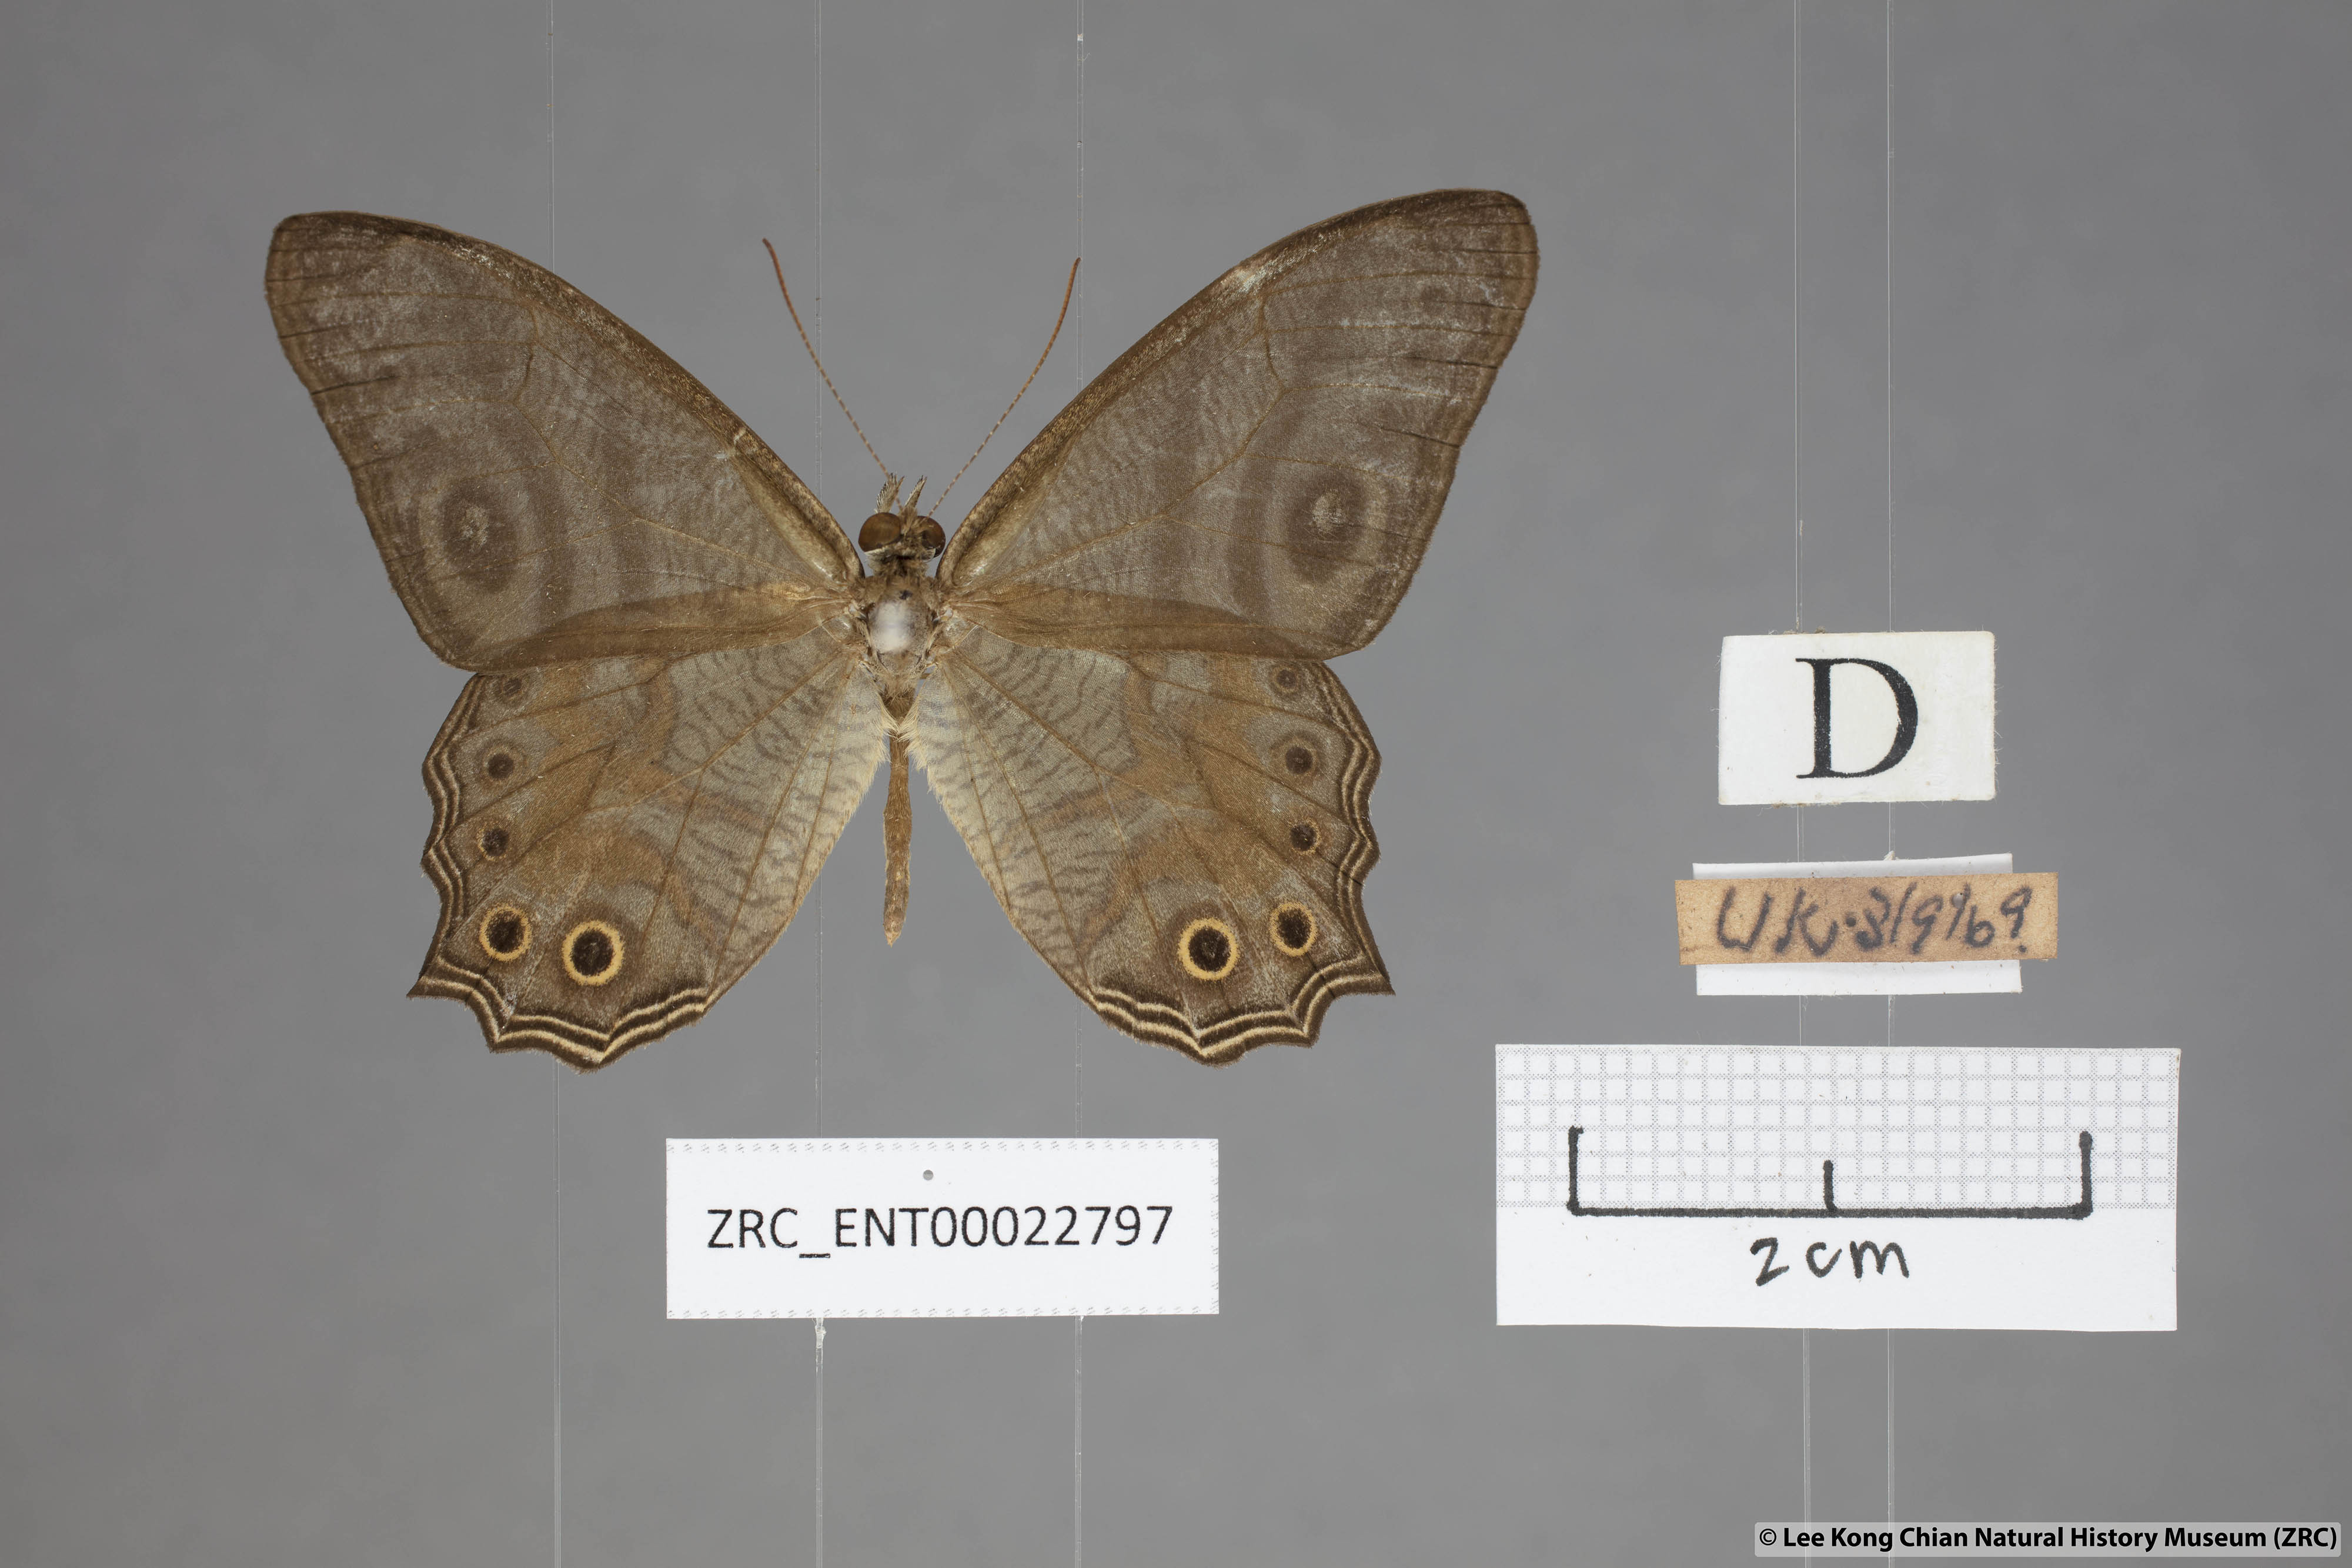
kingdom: Animalia
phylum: Arthropoda
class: Insecta
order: Lepidoptera
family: Nymphalidae
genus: Erites
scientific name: Erites angularis
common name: Angled cyclops
